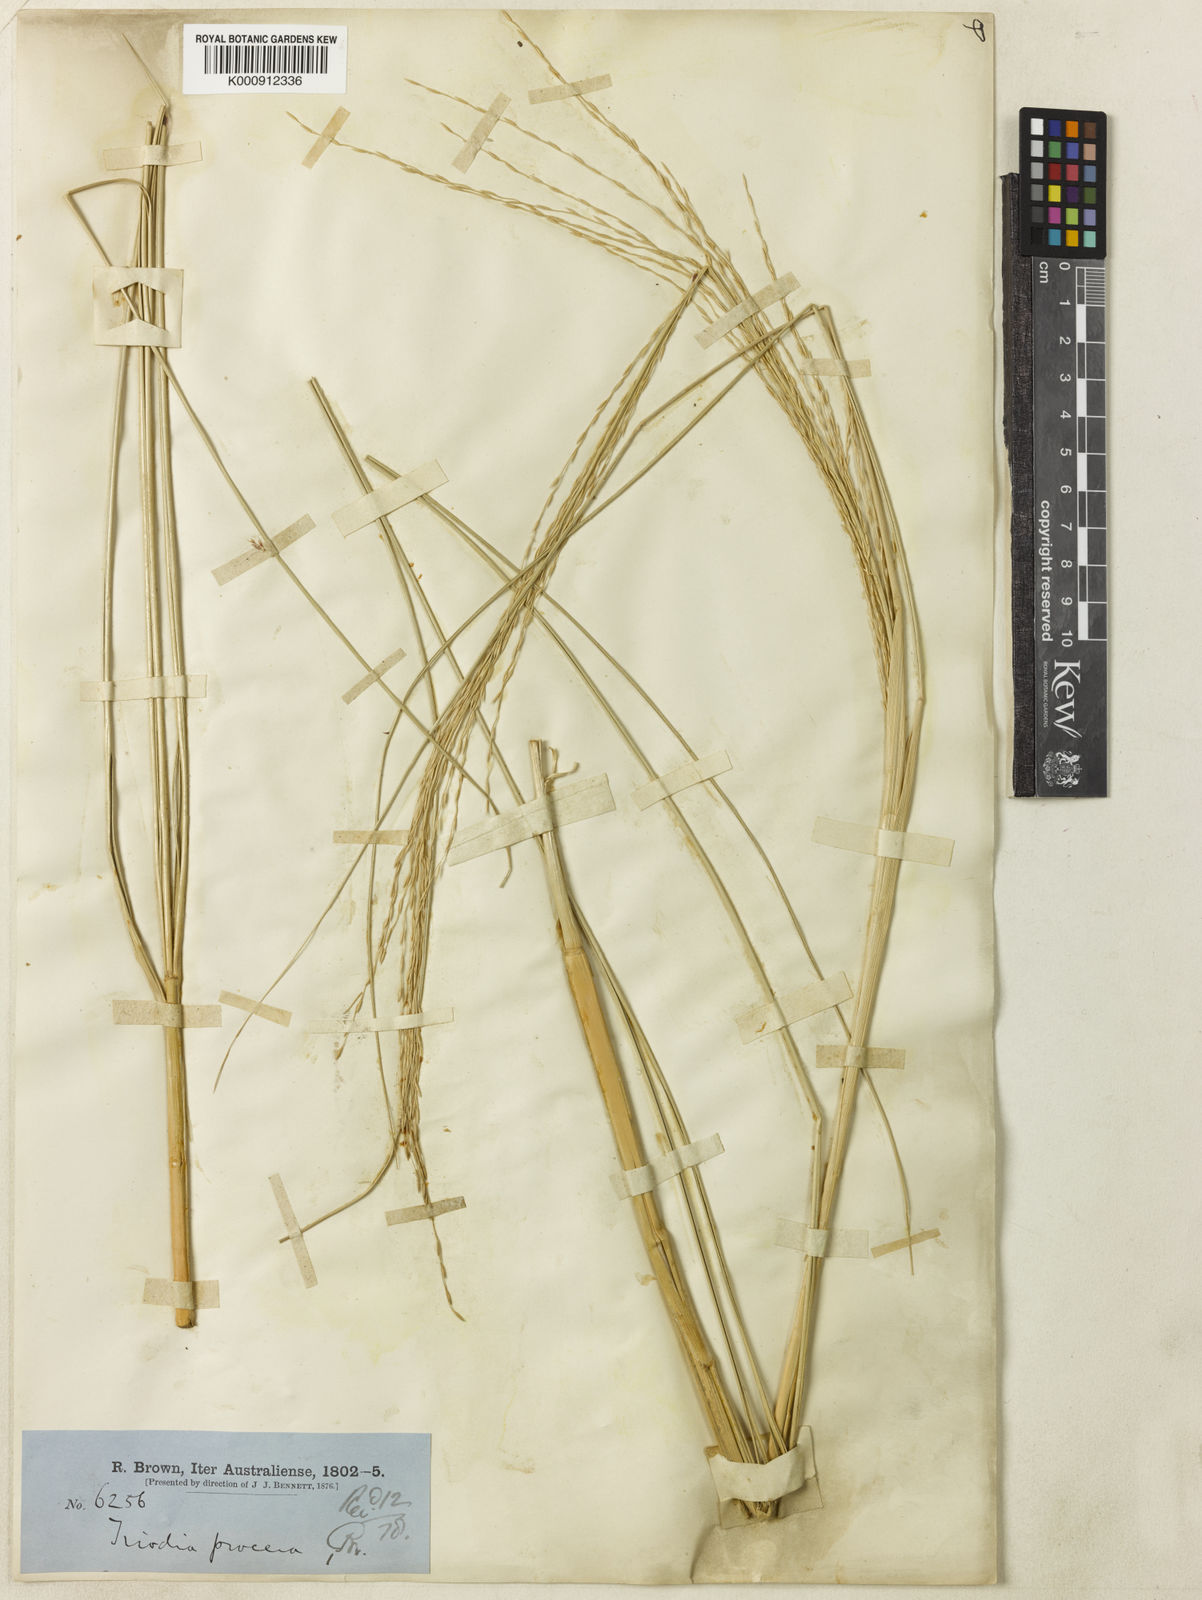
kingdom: Plantae
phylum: Tracheophyta
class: Liliopsida
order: Poales
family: Poaceae
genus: Triodia
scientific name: Triodia procera
